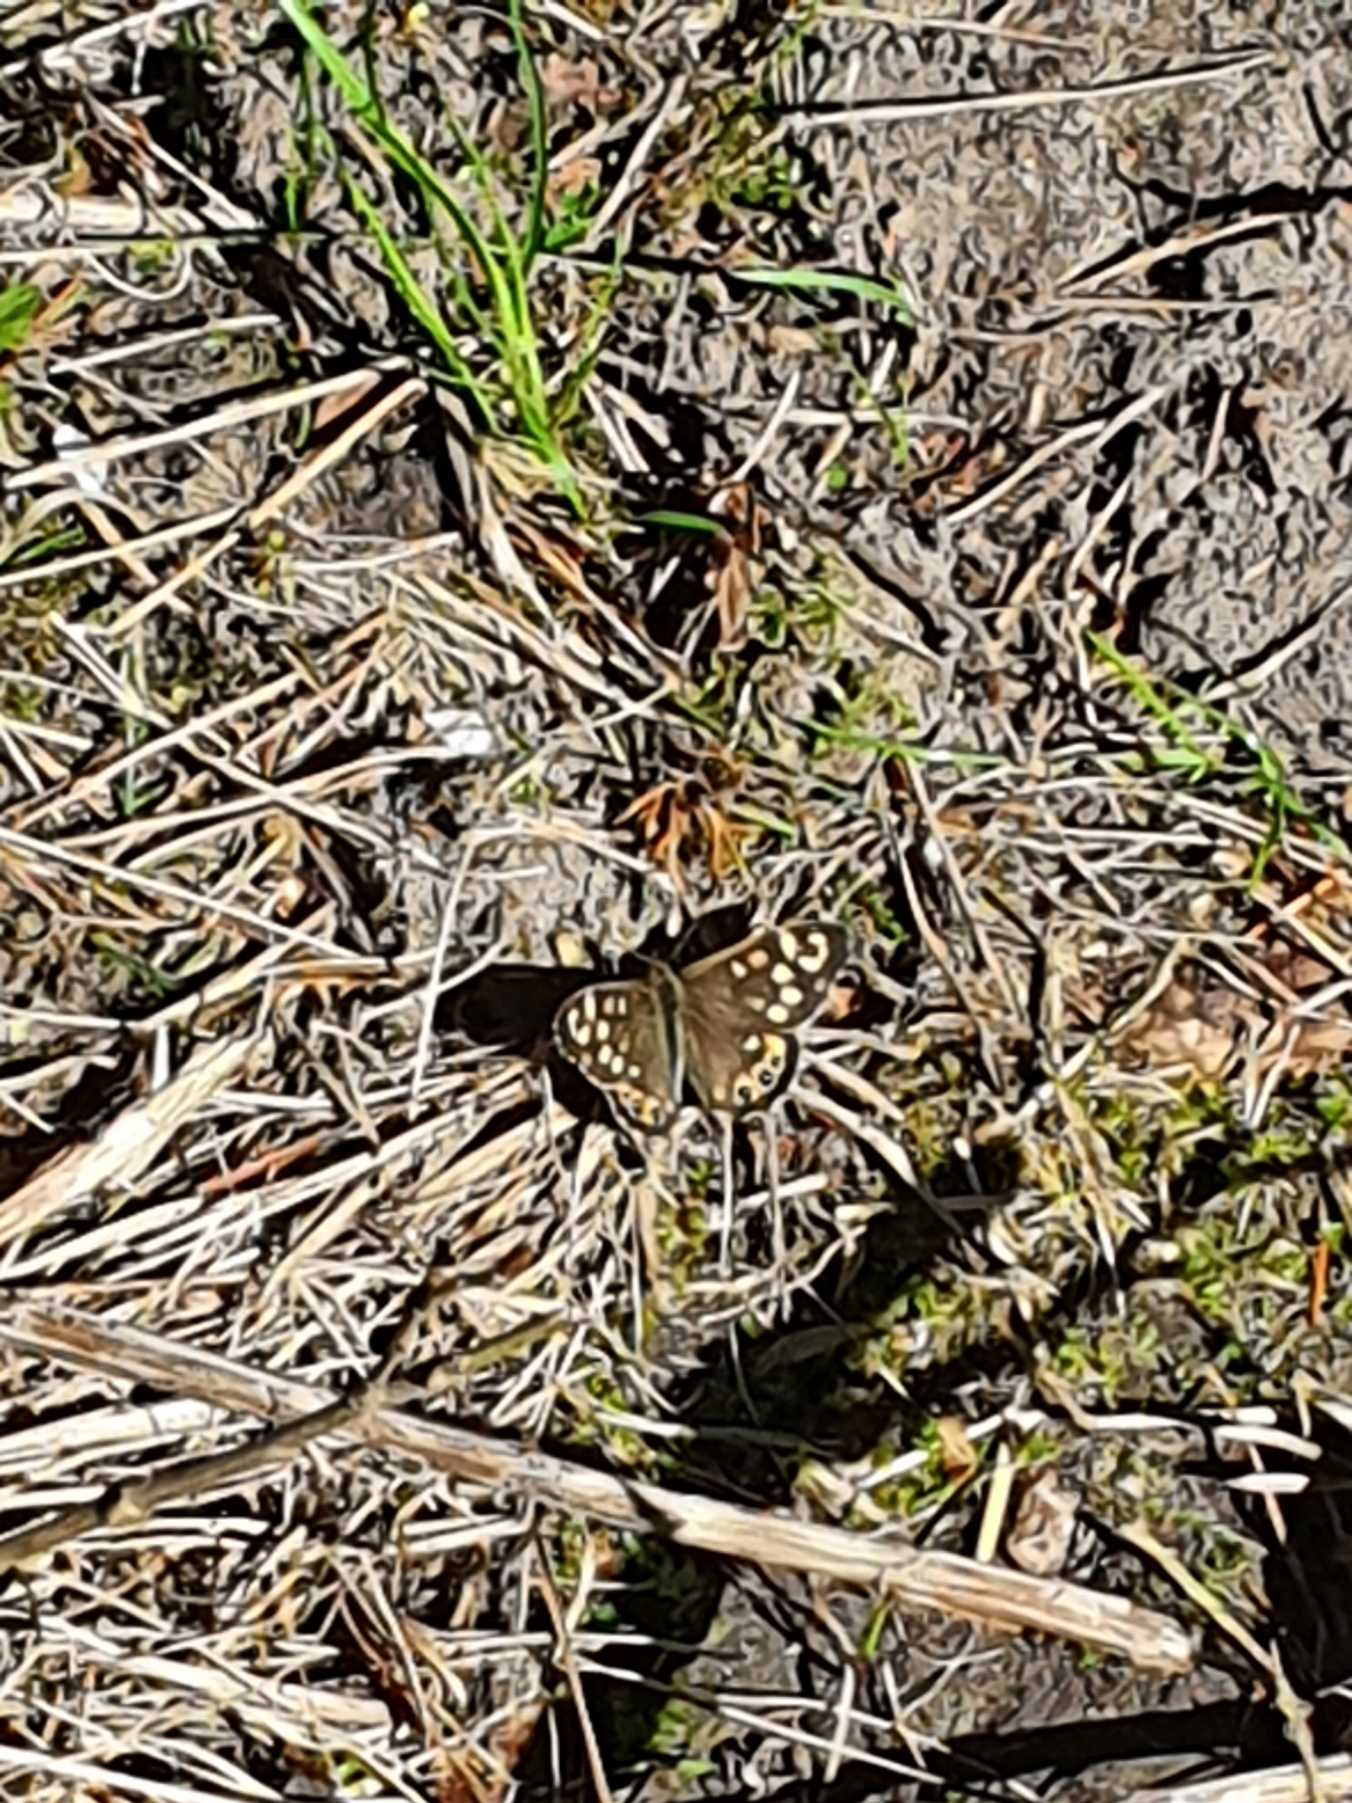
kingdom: Animalia
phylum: Arthropoda
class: Insecta
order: Lepidoptera
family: Nymphalidae
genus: Pararge
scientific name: Pararge aegeria
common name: Skovrandøje
